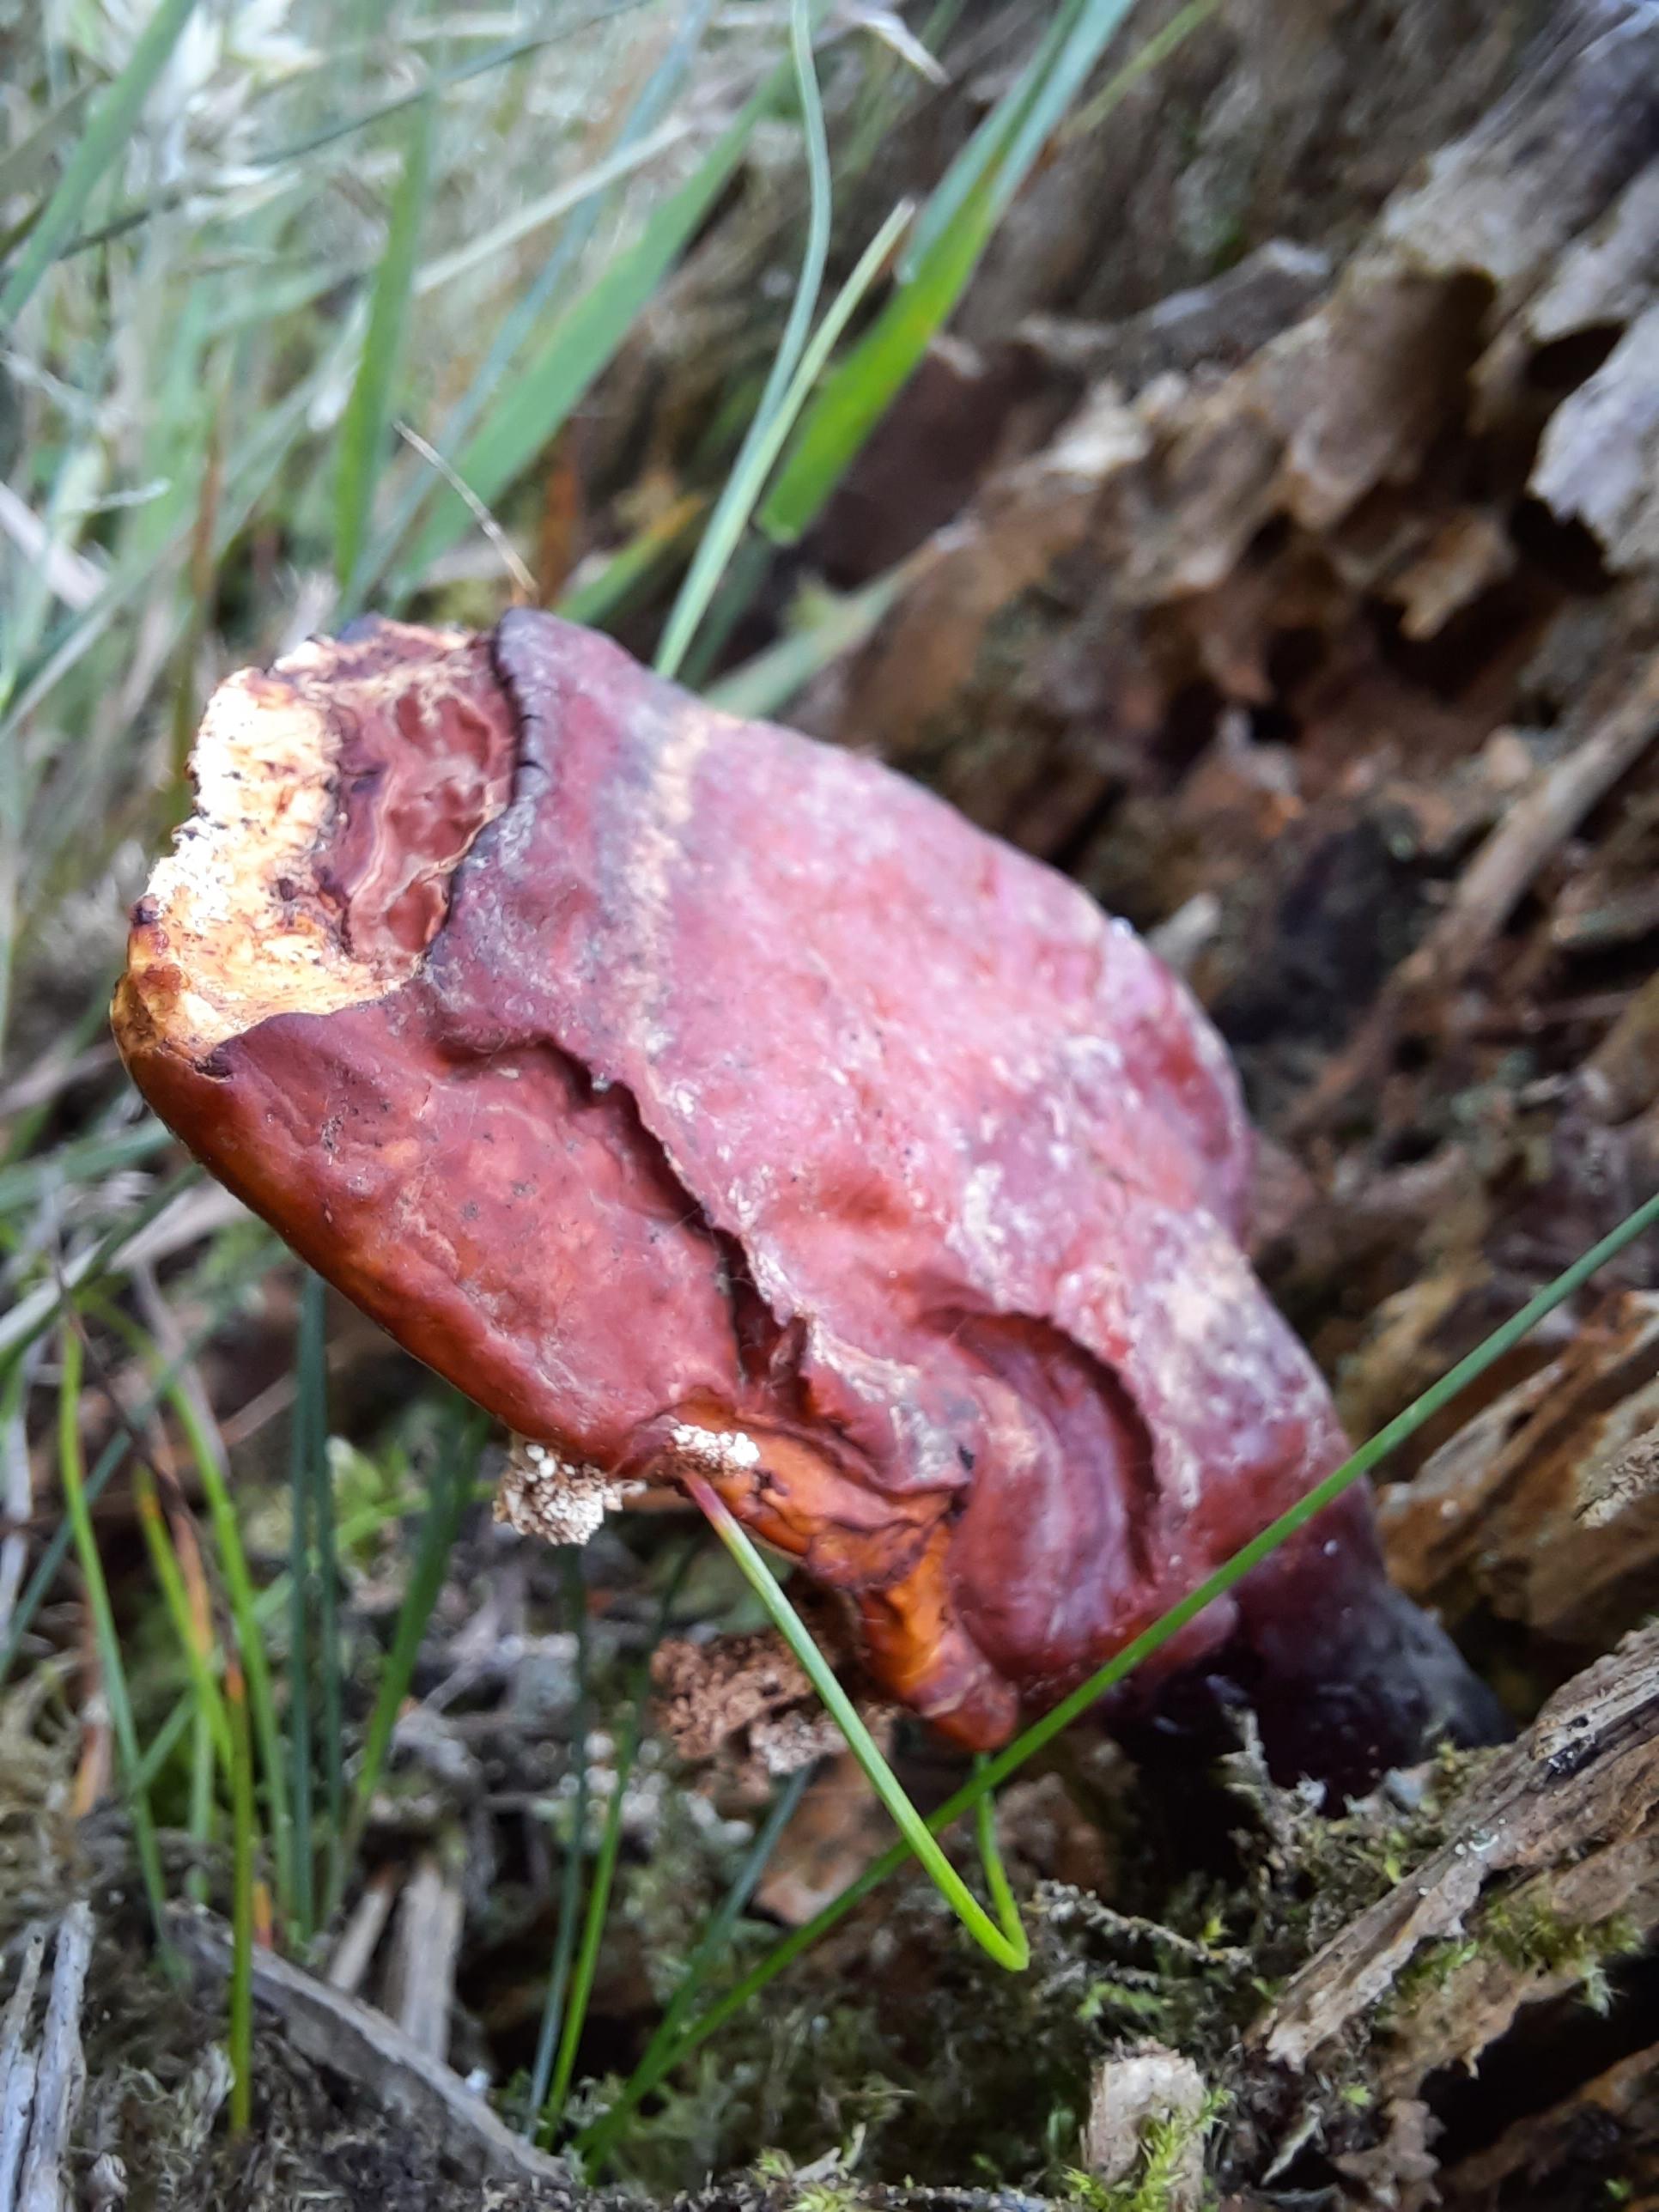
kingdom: Fungi
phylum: Basidiomycota
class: Agaricomycetes
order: Polyporales
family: Polyporaceae
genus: Ganoderma
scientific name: Ganoderma lucidum
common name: skinnende lakporesvamp
